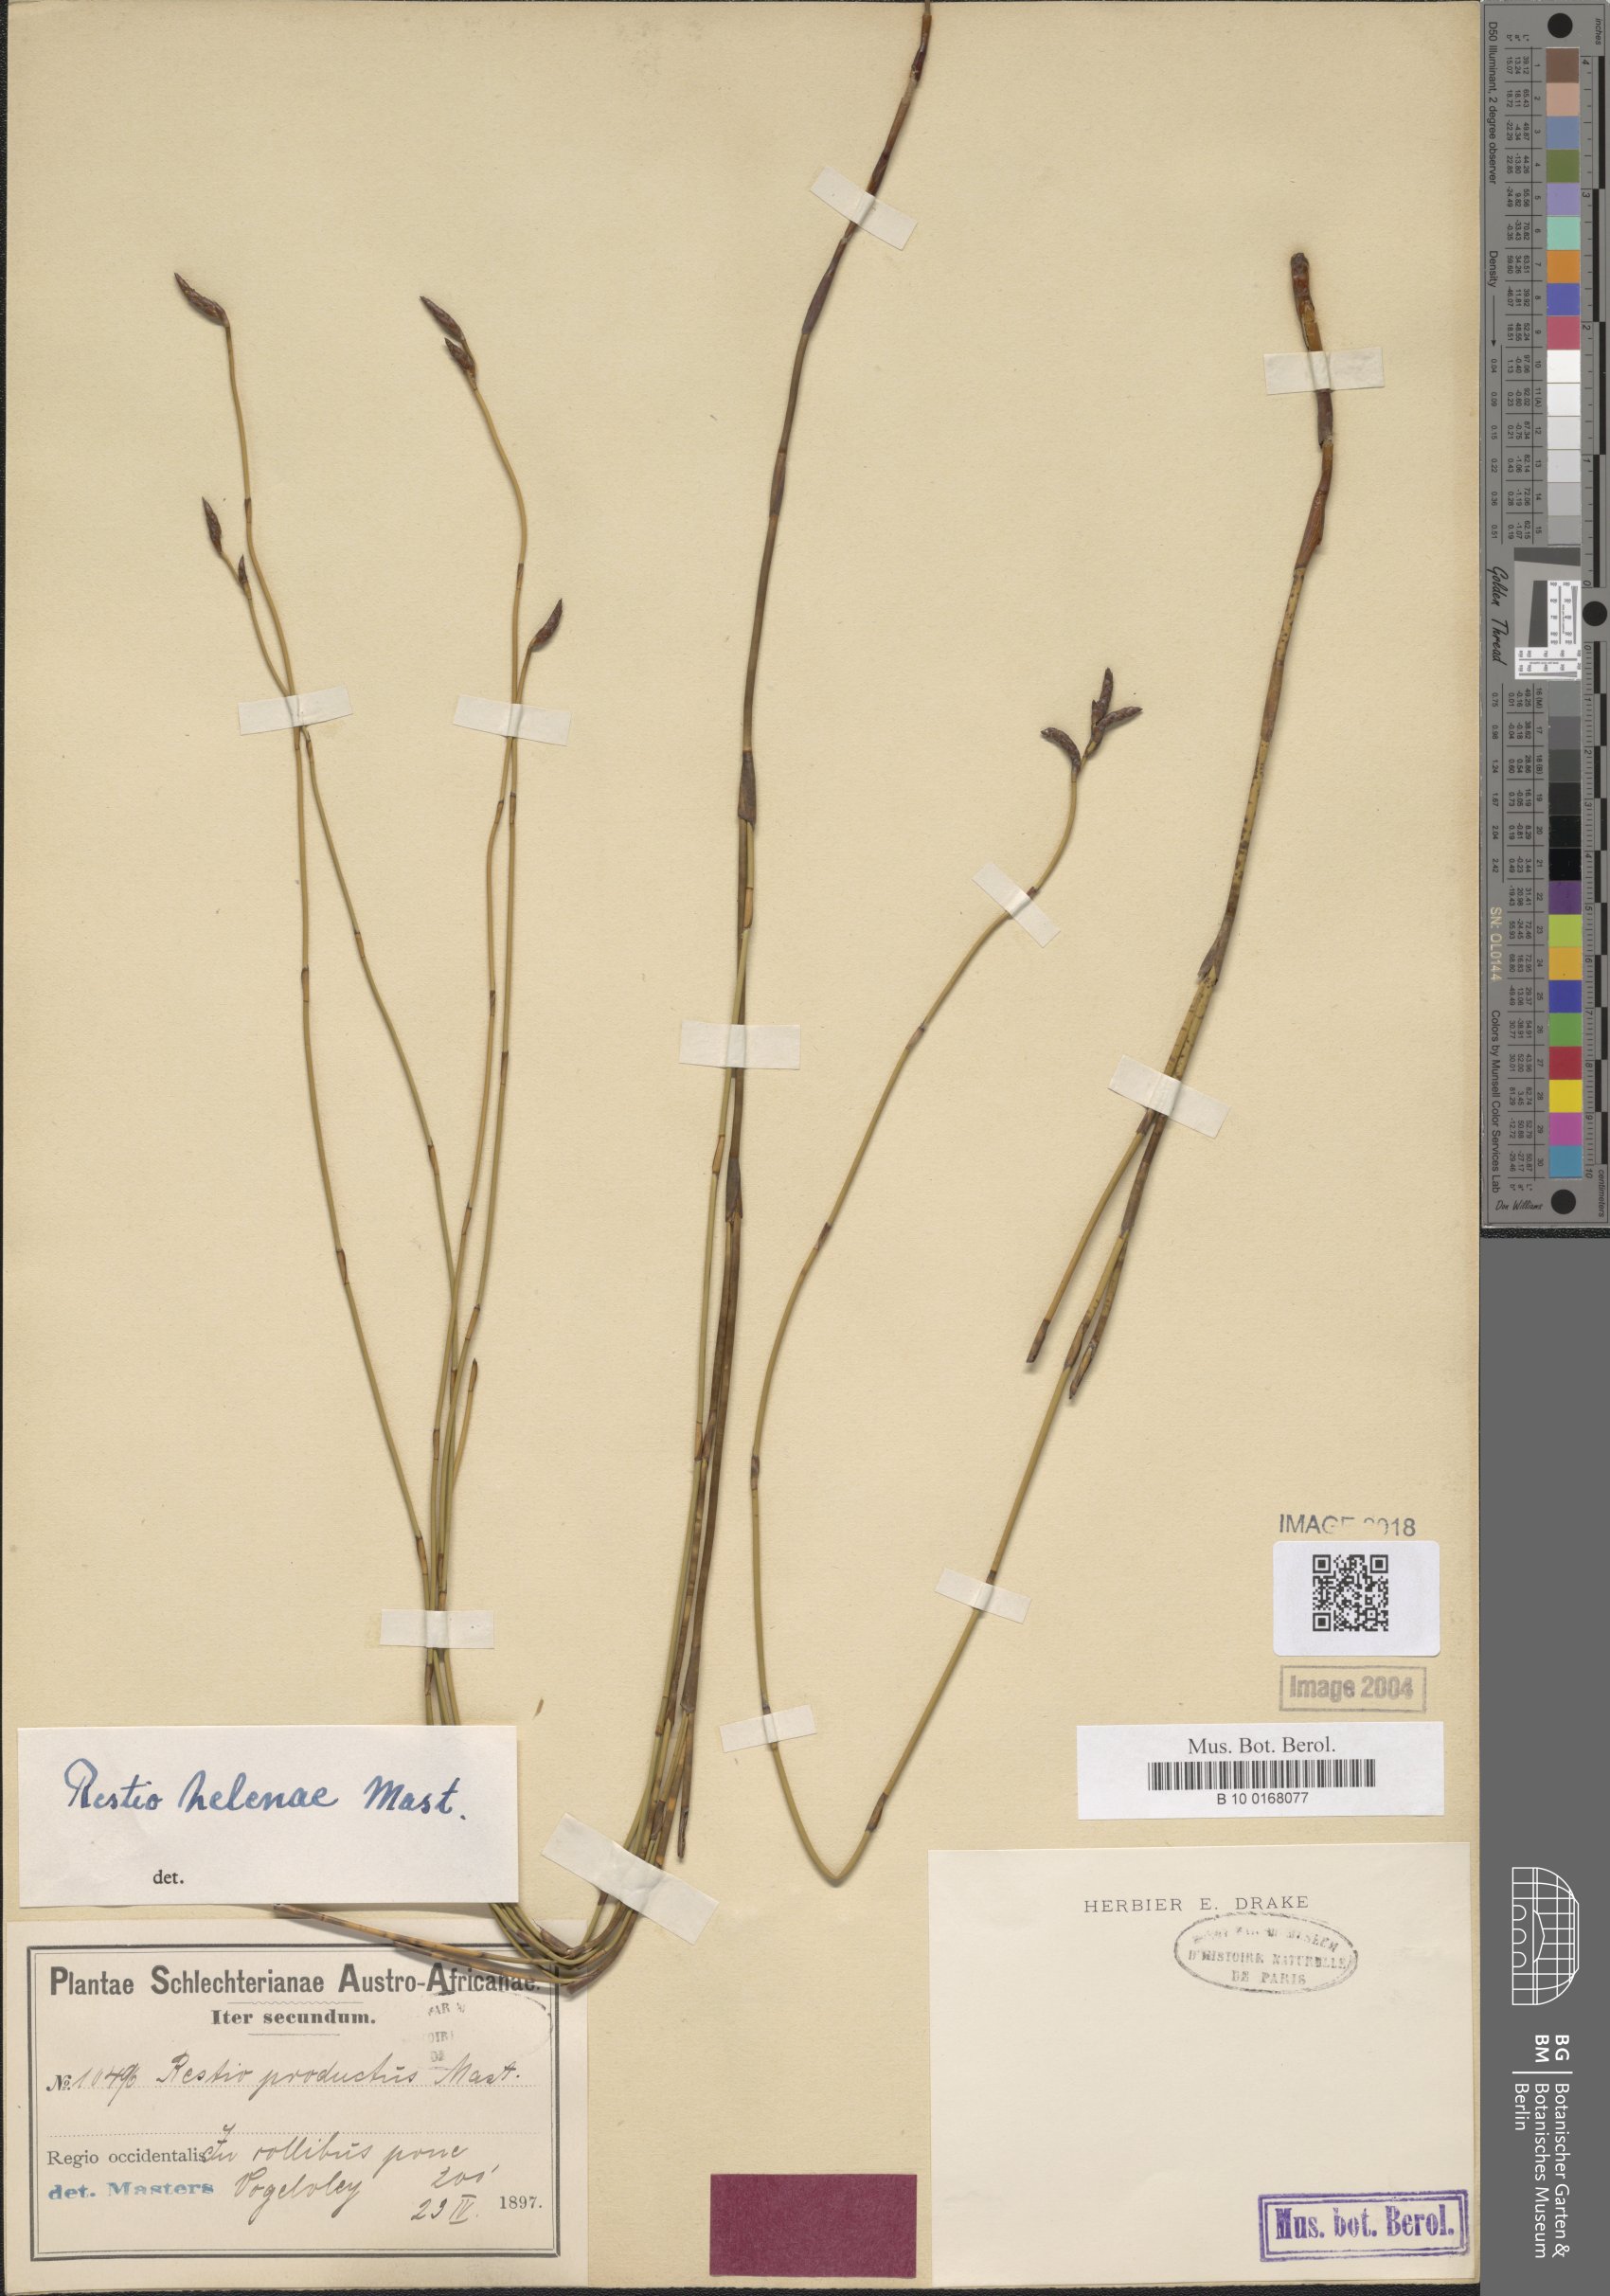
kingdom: Plantae
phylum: Tracheophyta
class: Liliopsida
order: Poales
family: Restionaceae
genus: Restio
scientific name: Restio helenae
